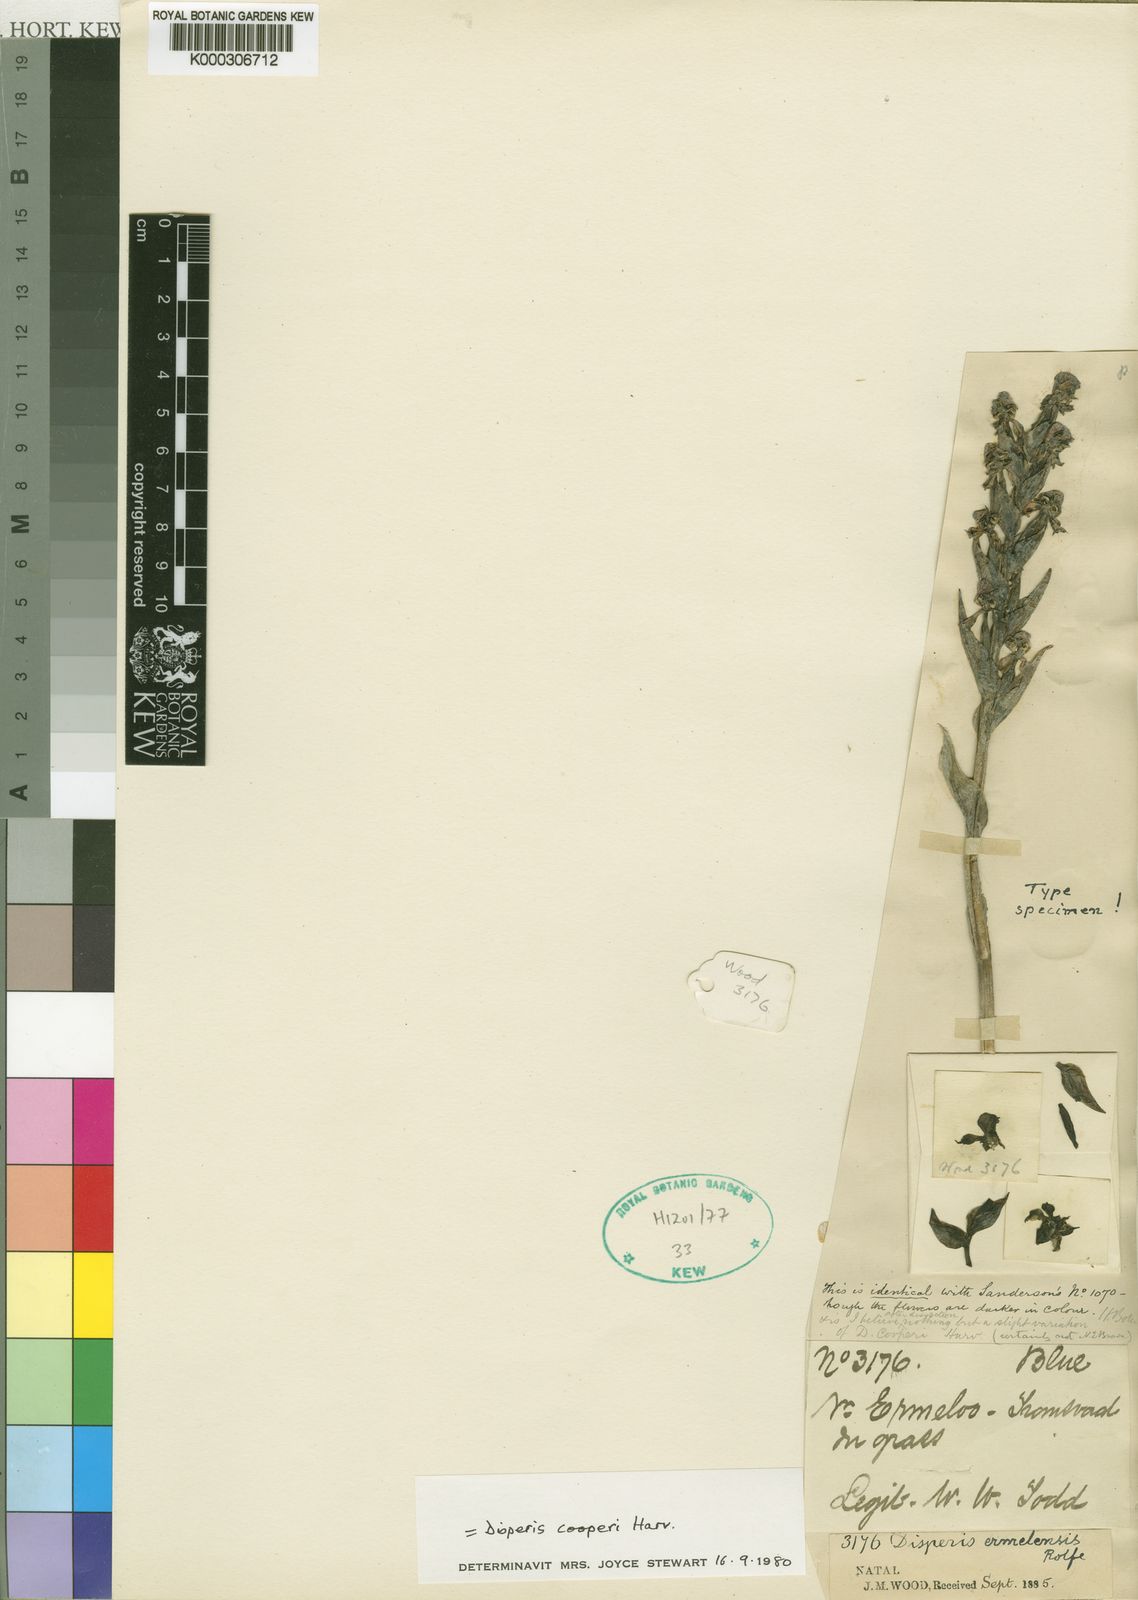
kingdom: Plantae
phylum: Tracheophyta
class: Liliopsida
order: Asparagales
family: Orchidaceae
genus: Disperis
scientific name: Disperis cooperi
